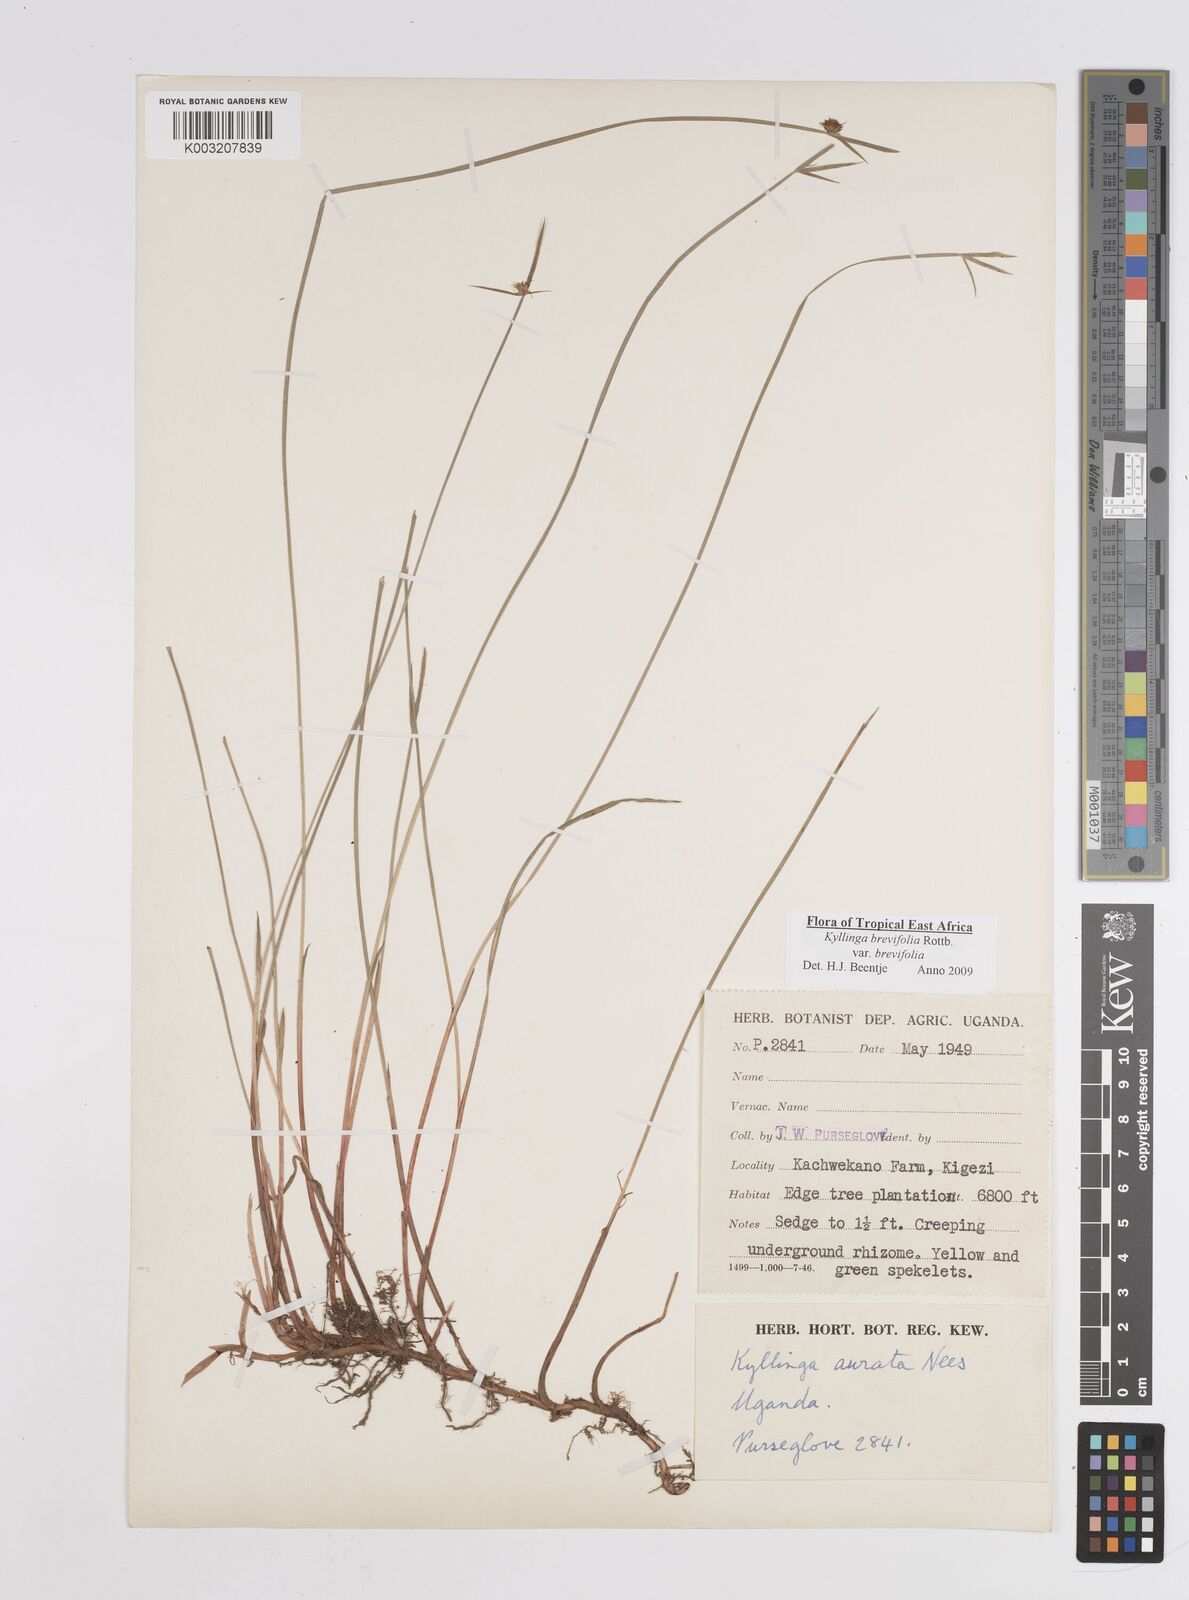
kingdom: Plantae
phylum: Tracheophyta
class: Liliopsida
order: Poales
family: Cyperaceae
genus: Cyperus
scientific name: Cyperus erectus
